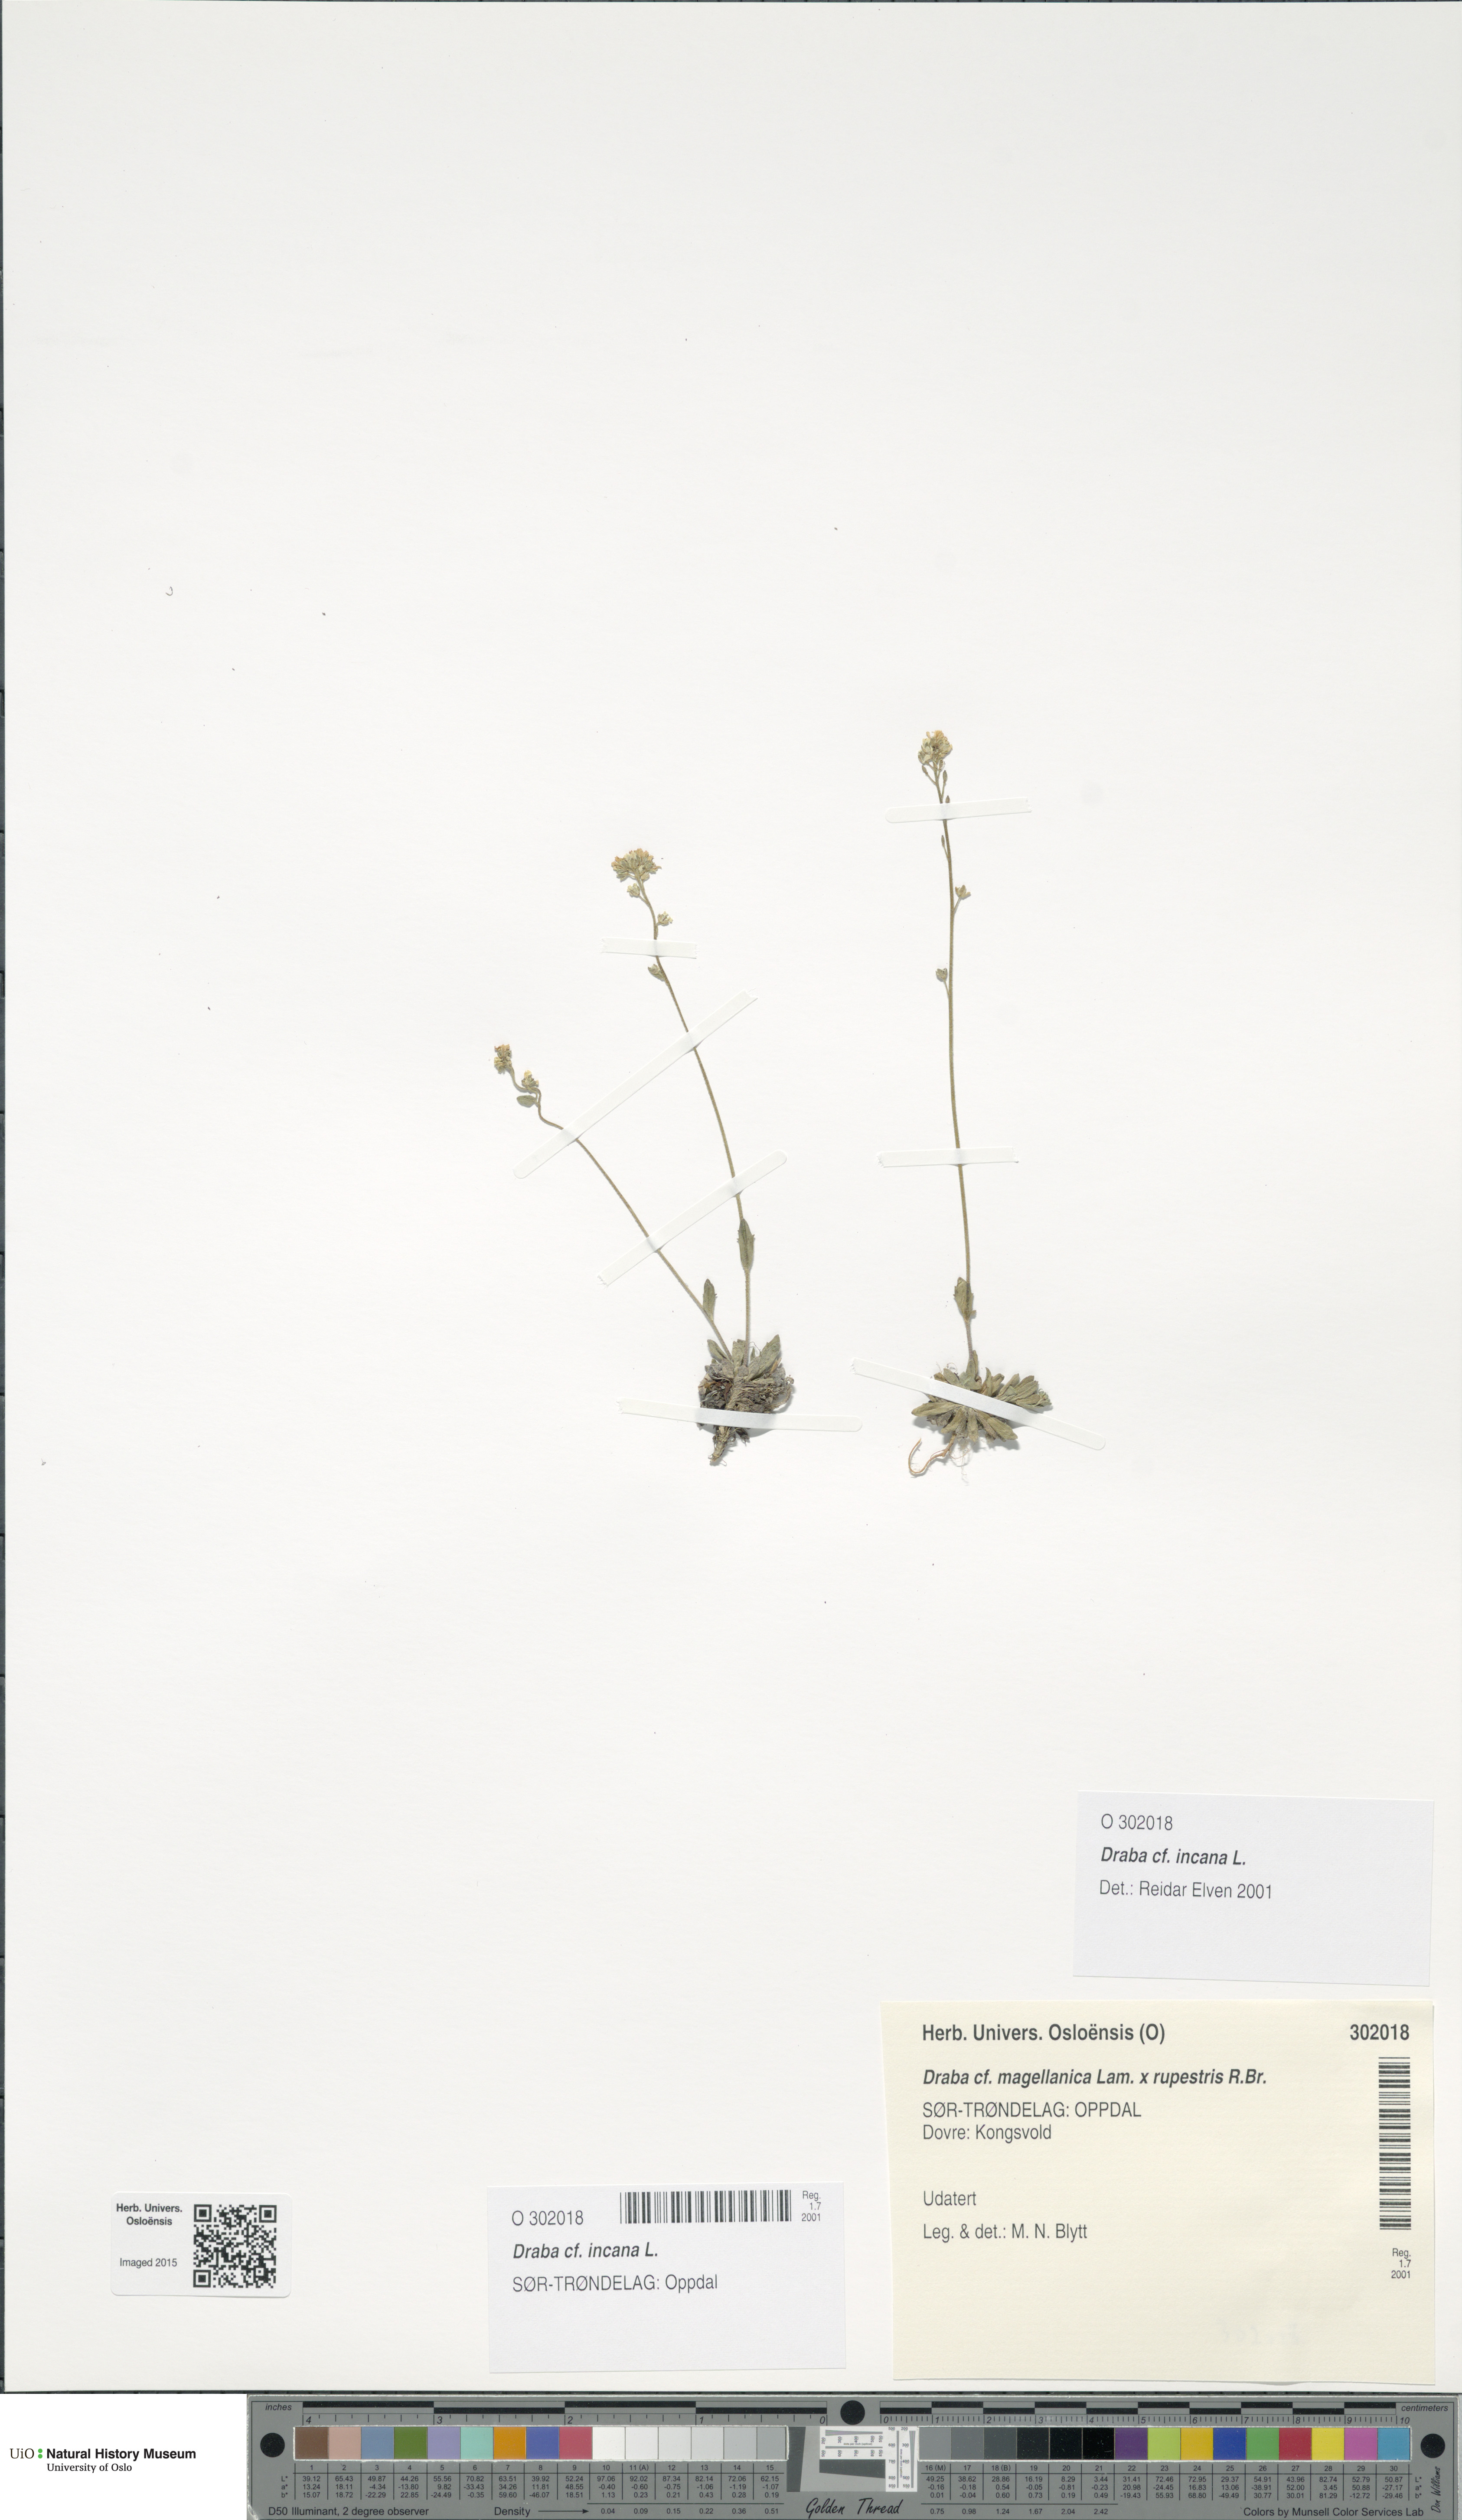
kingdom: Plantae
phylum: Tracheophyta
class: Magnoliopsida
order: Brassicales
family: Brassicaceae
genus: Draba
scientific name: Draba incana
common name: Hoary whitlow-grass
